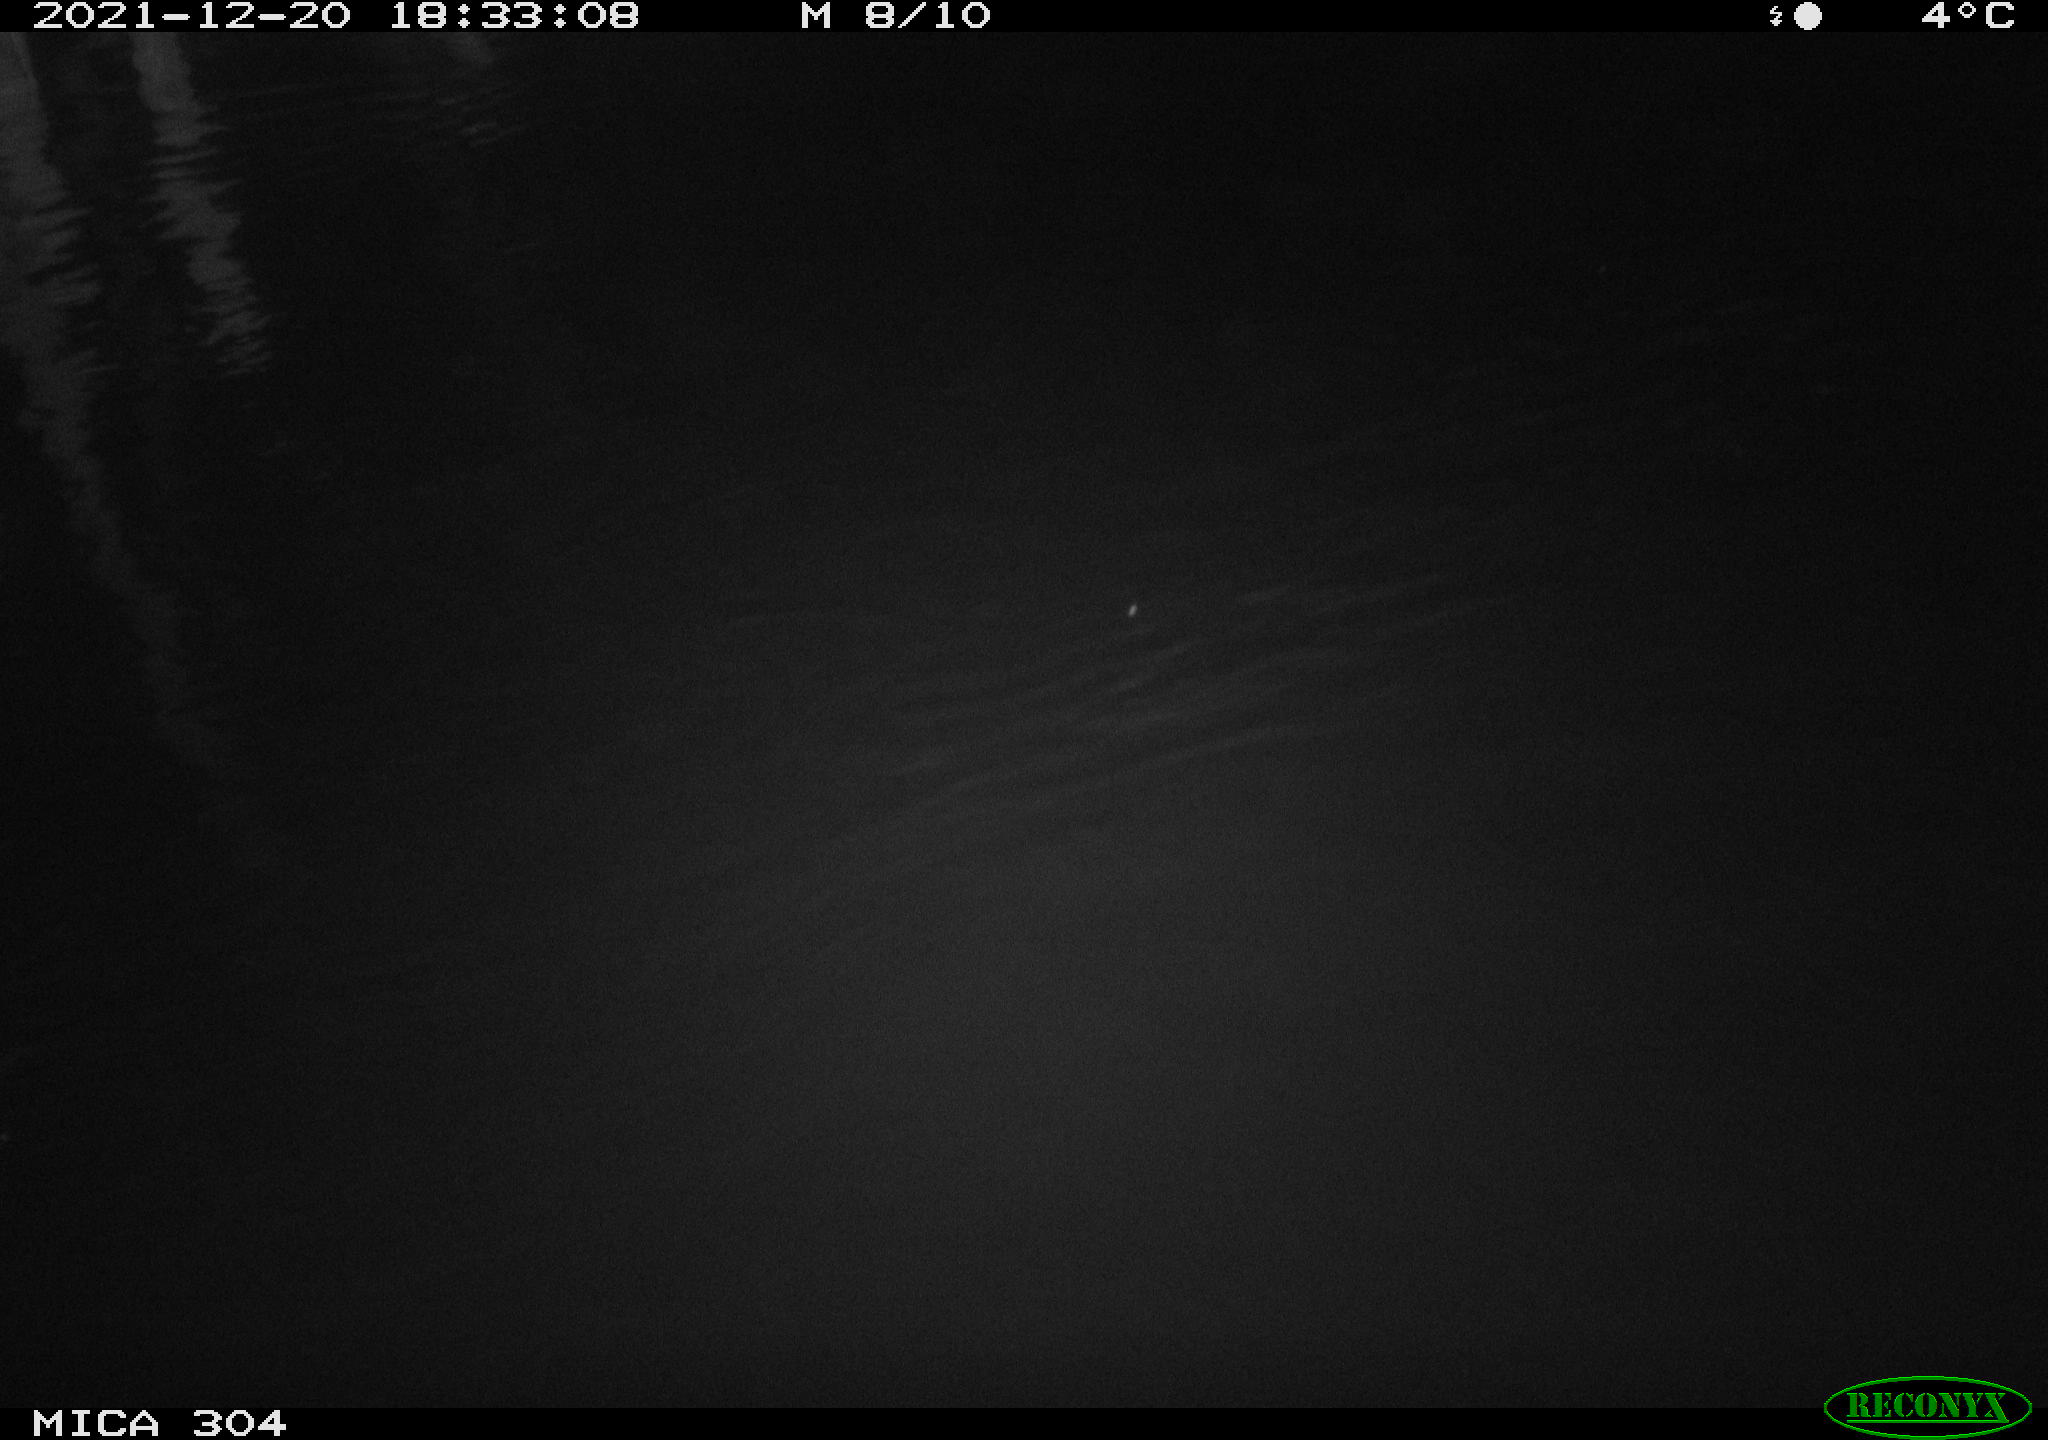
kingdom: Animalia
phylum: Chordata
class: Mammalia
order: Rodentia
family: Muridae
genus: Rattus
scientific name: Rattus norvegicus
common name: Brown rat
